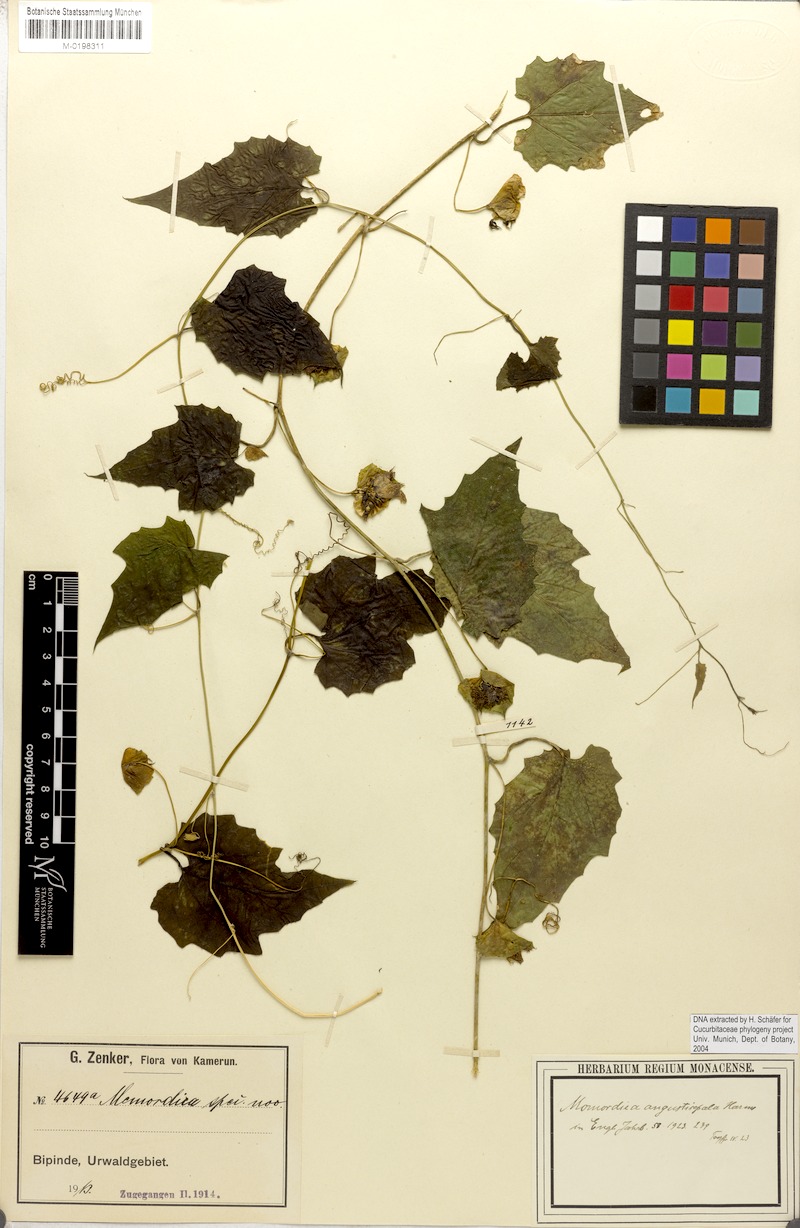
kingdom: Plantae
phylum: Tracheophyta
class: Magnoliopsida
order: Cucurbitales
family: Cucurbitaceae
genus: Momordica
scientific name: Momordica angustisepala
